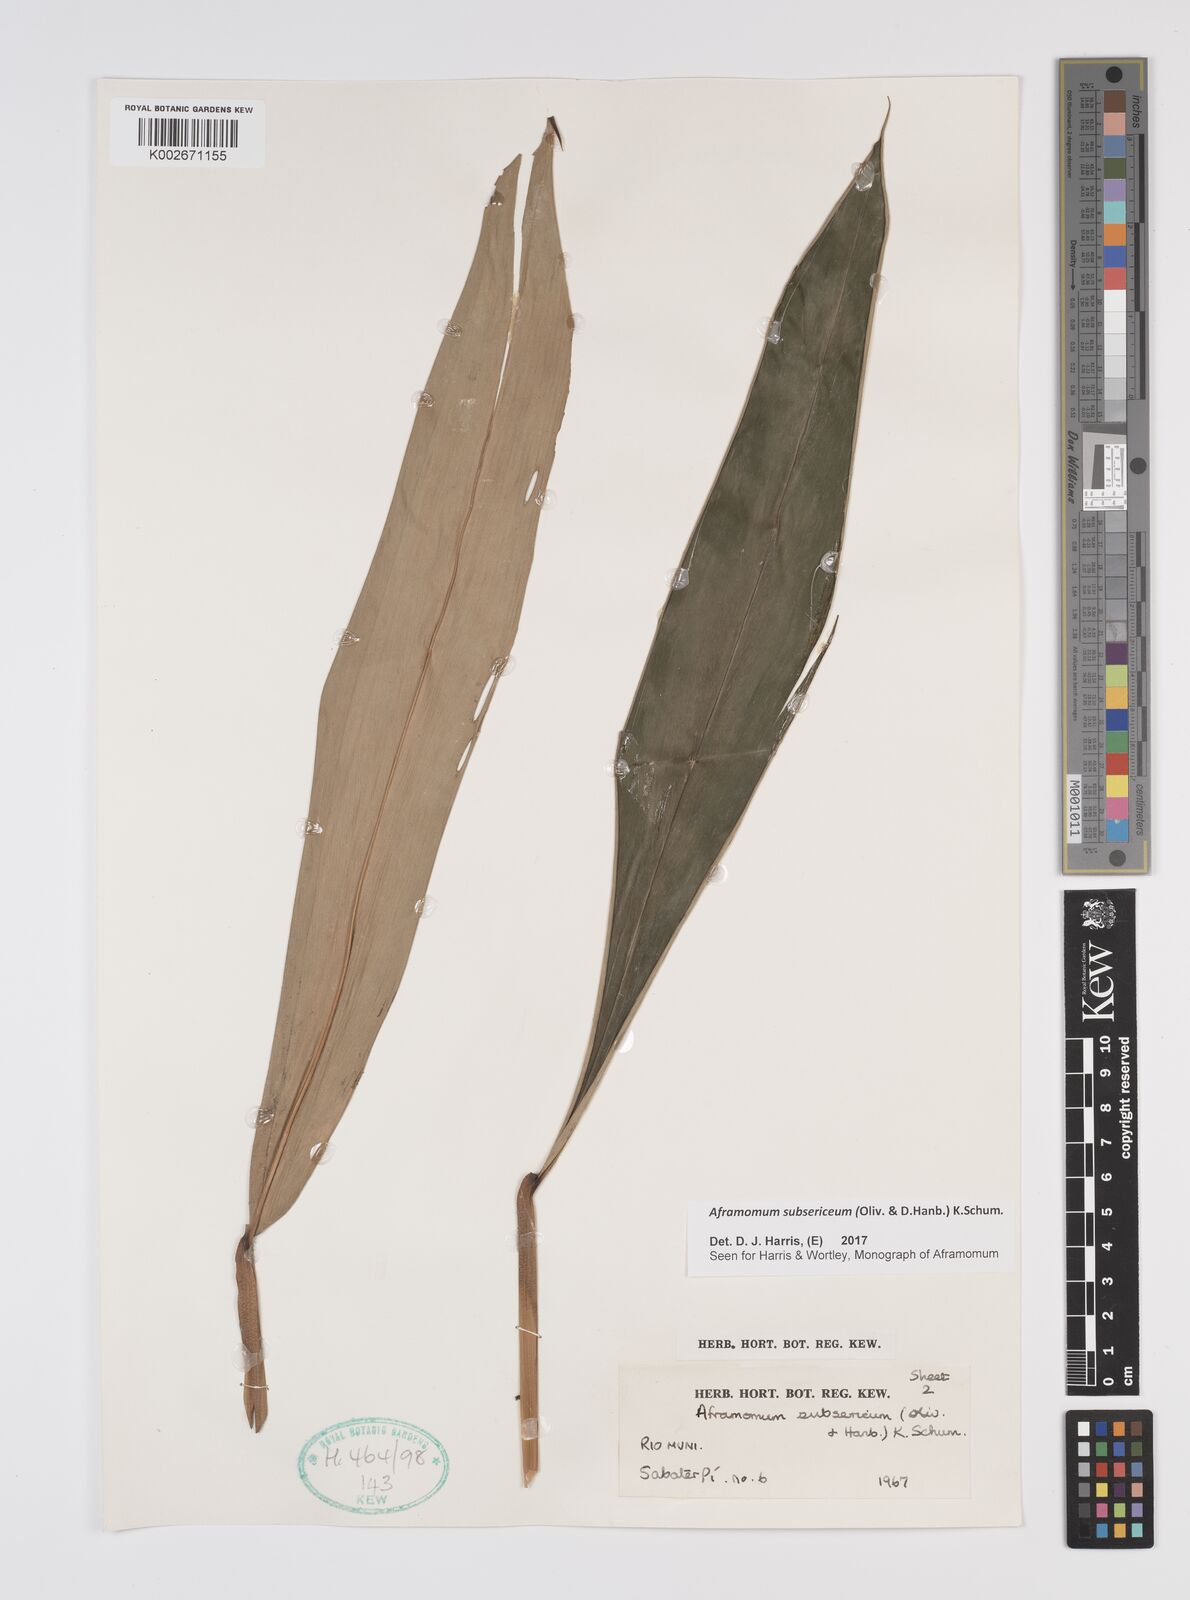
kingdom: Plantae
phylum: Tracheophyta
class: Liliopsida
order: Zingiberales
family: Zingiberaceae
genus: Aframomum
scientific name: Aframomum subsericeum
